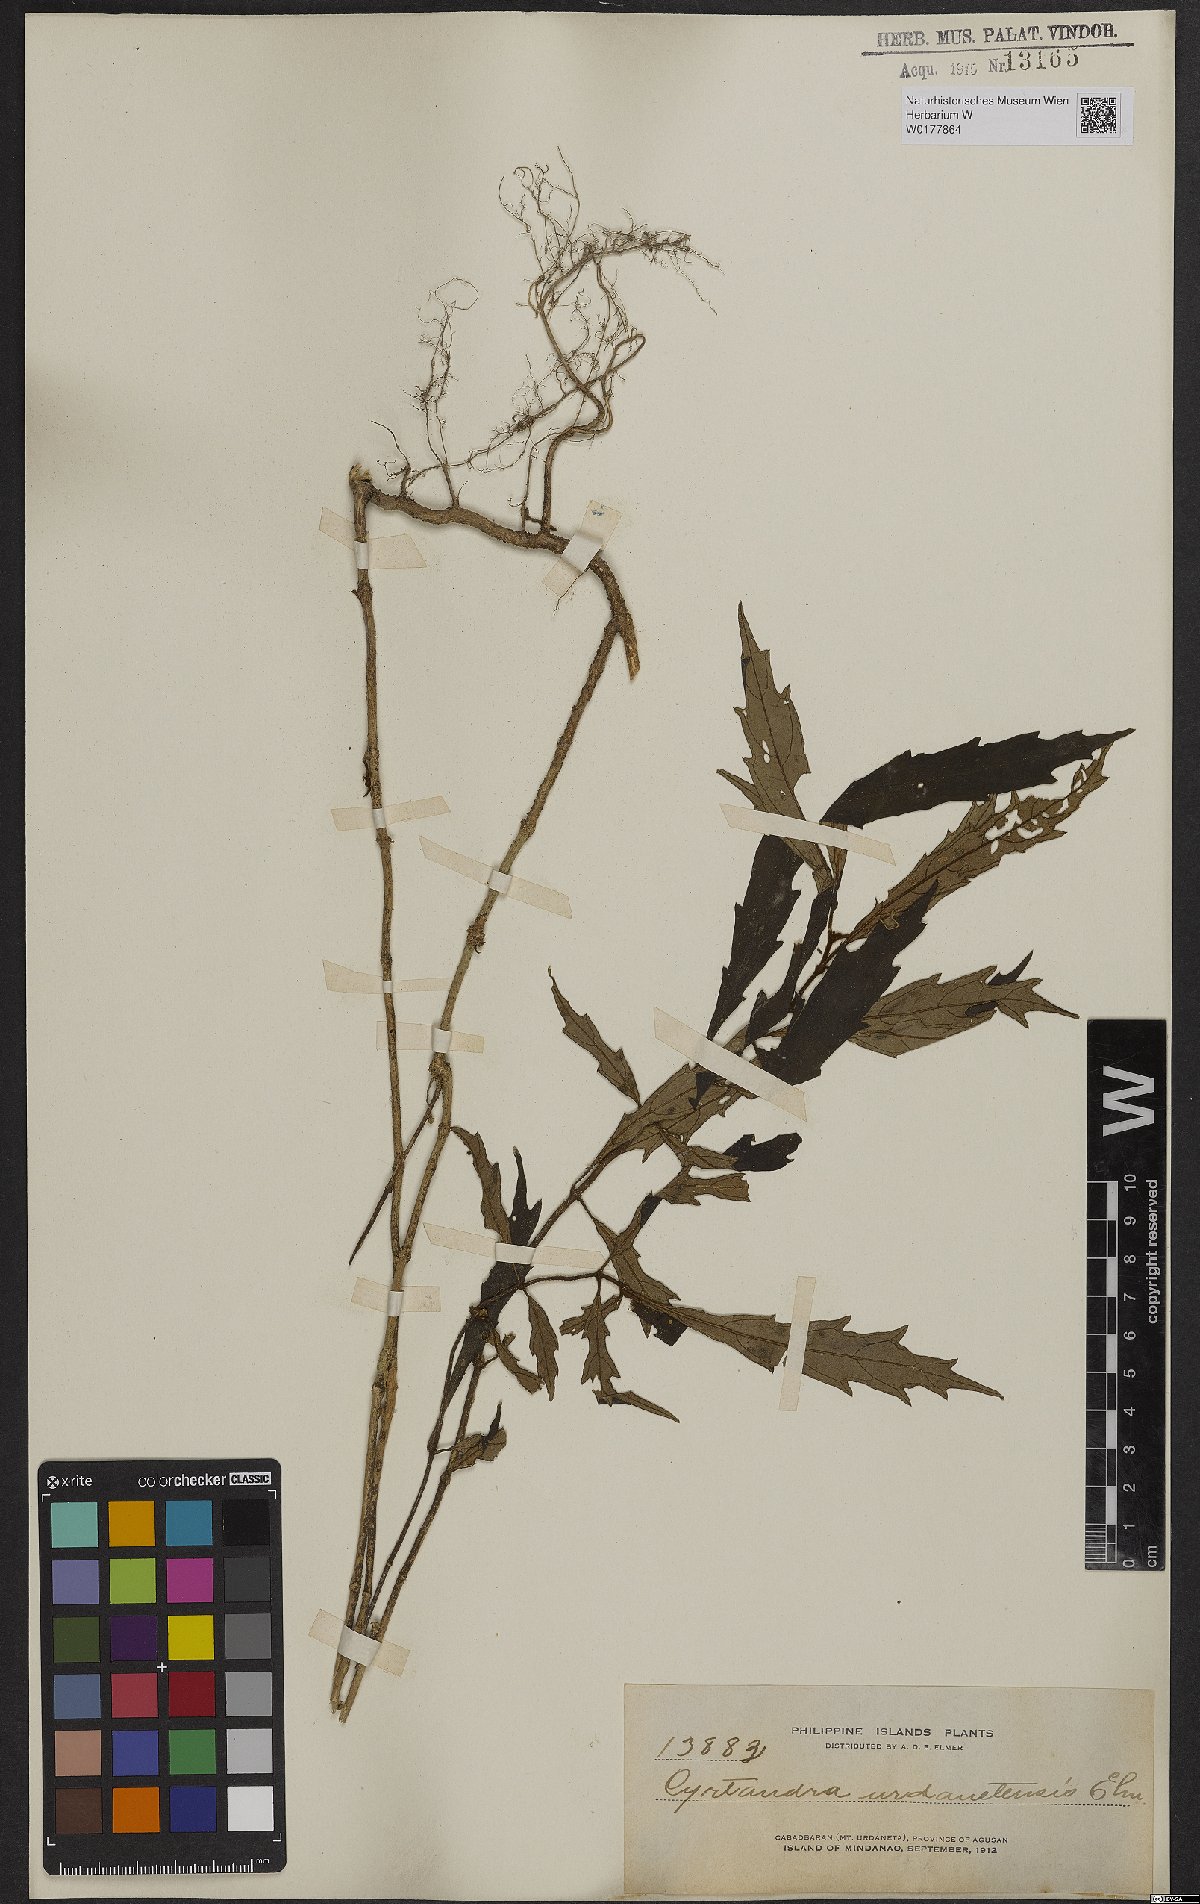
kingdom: Plantae
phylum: Tracheophyta
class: Magnoliopsida
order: Lamiales
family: Gesneriaceae
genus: Cyrtandra
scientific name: Cyrtandra
